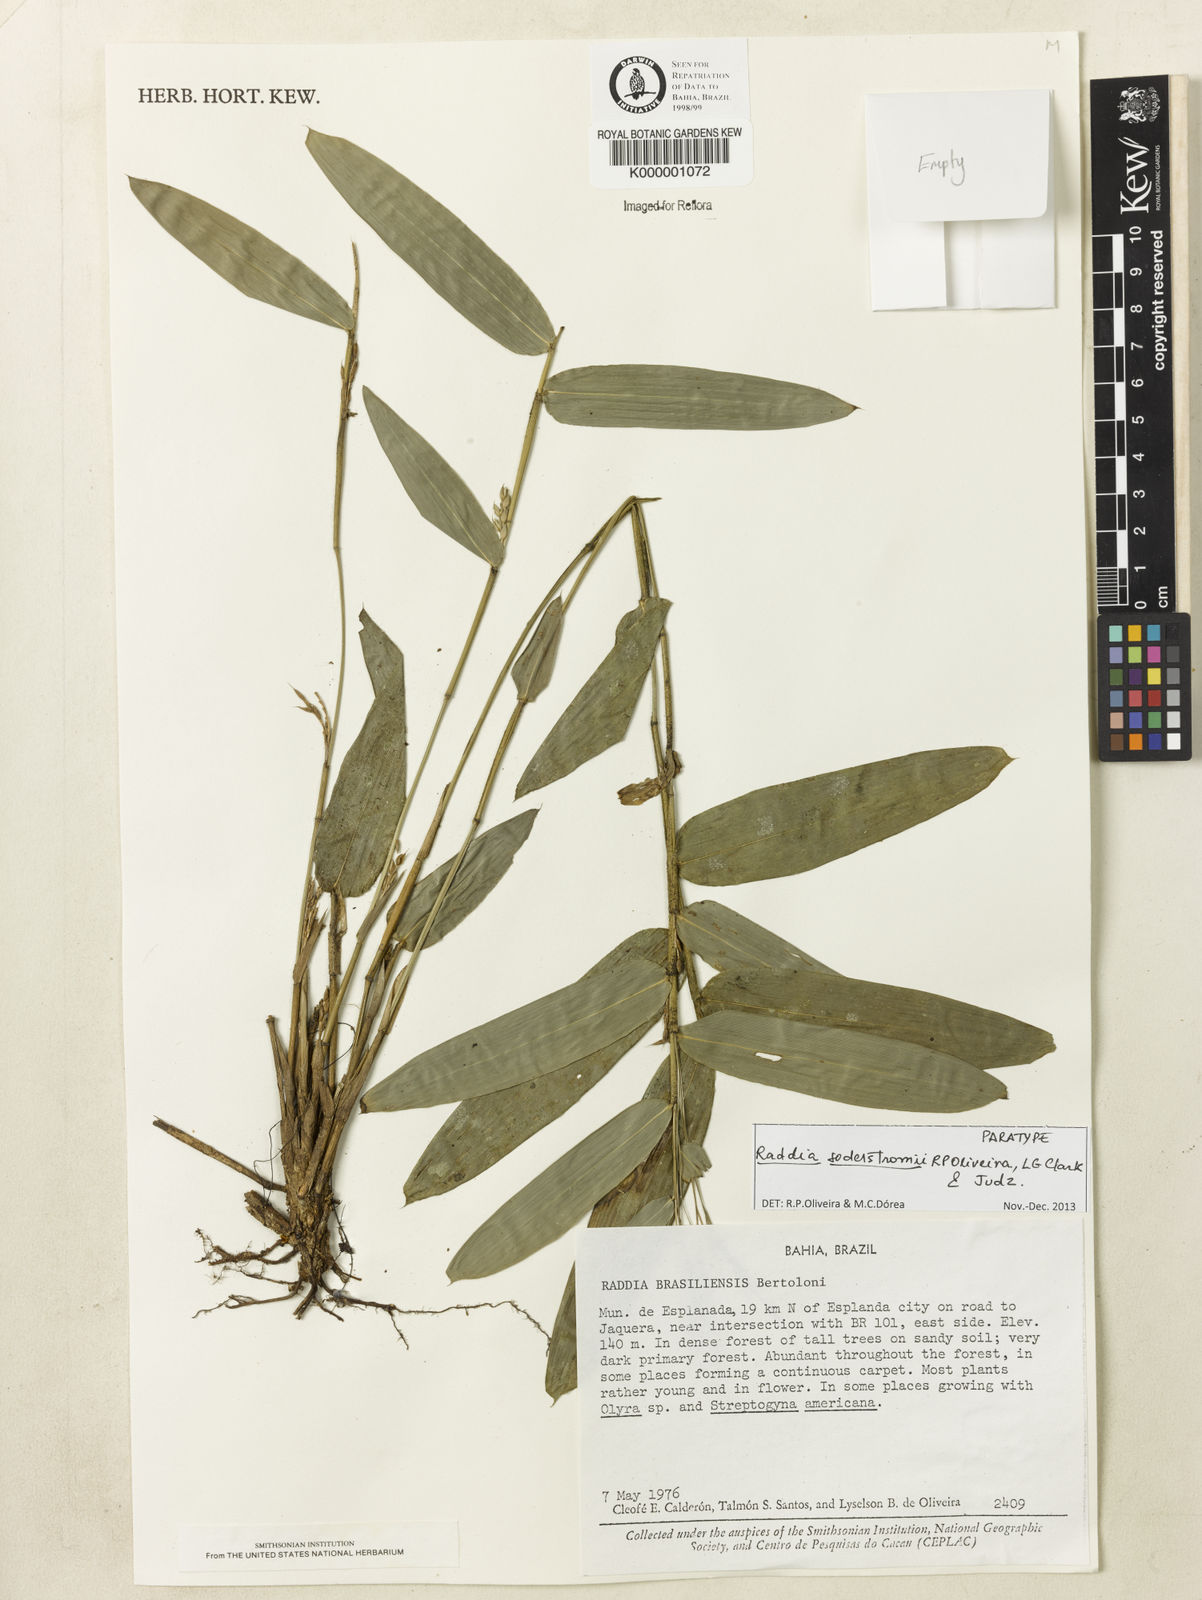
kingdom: Plantae
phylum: Tracheophyta
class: Liliopsida
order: Poales
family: Poaceae
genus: Raddia
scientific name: Raddia brasiliensis
